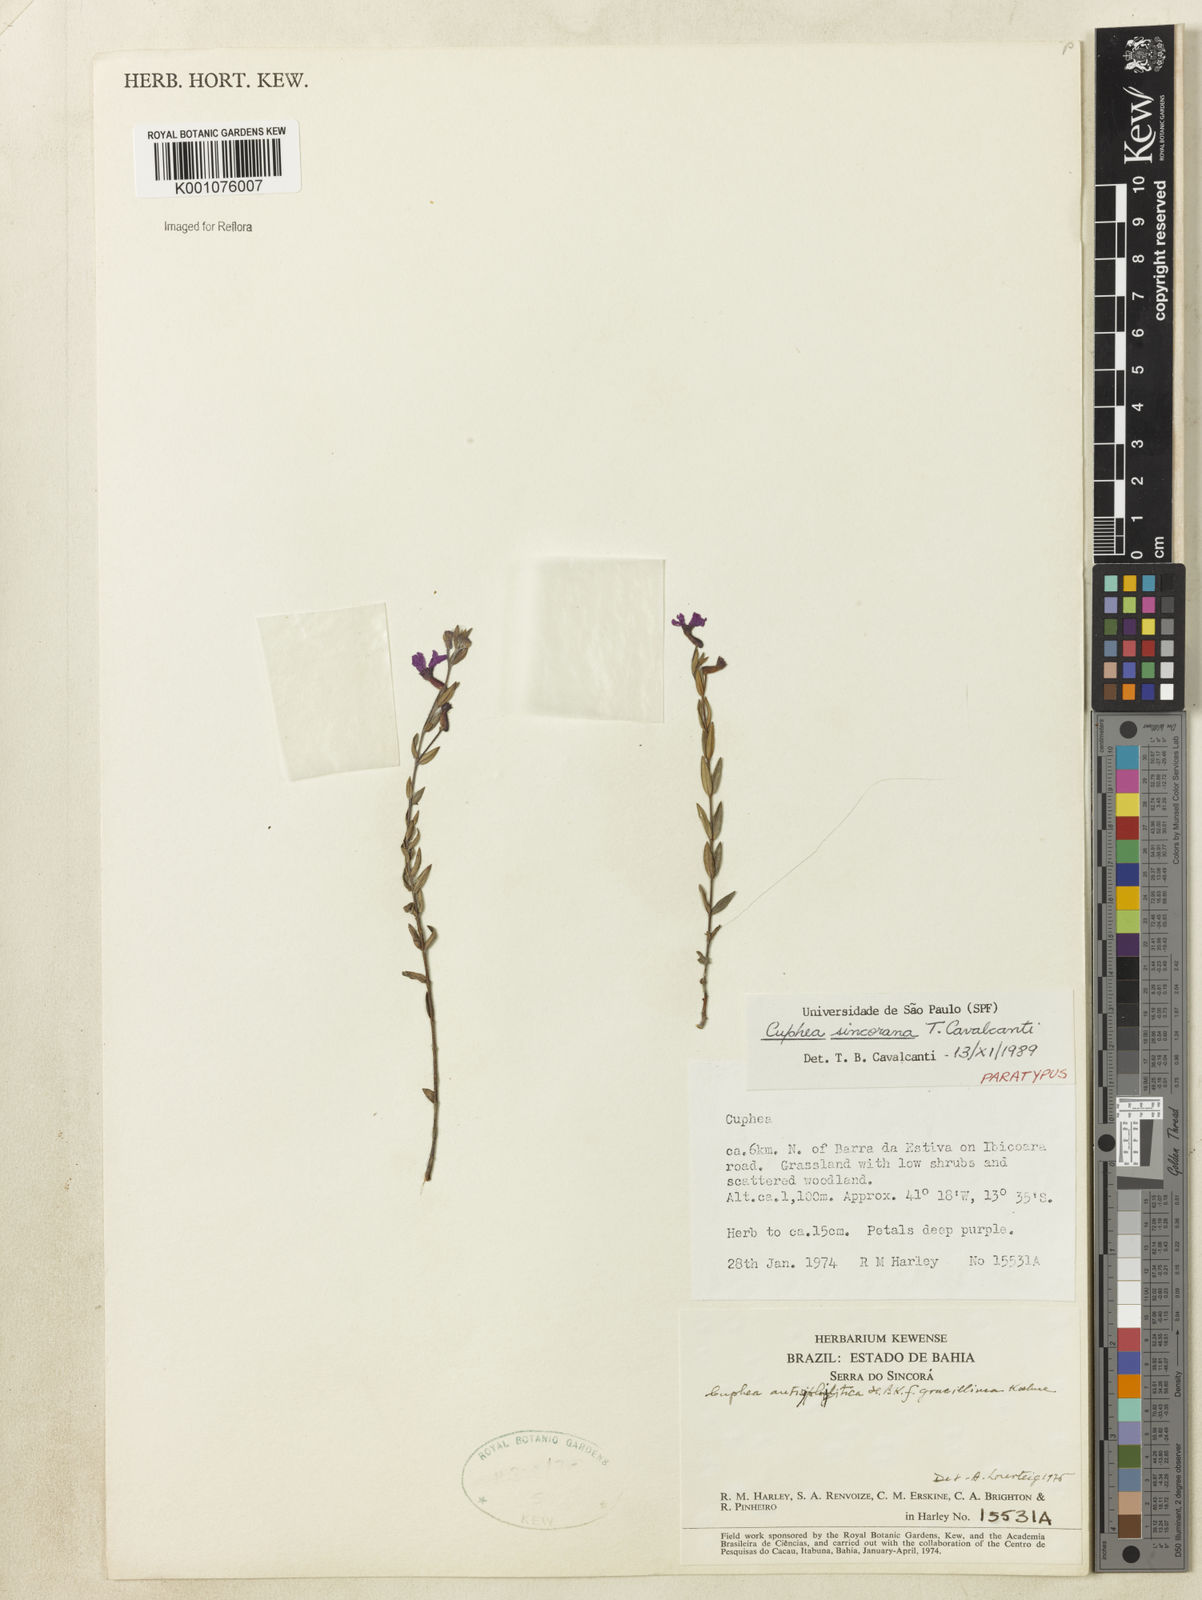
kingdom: Plantae
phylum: Tracheophyta
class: Magnoliopsida
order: Myrtales
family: Lythraceae
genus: Cuphea
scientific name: Cuphea sincorana
